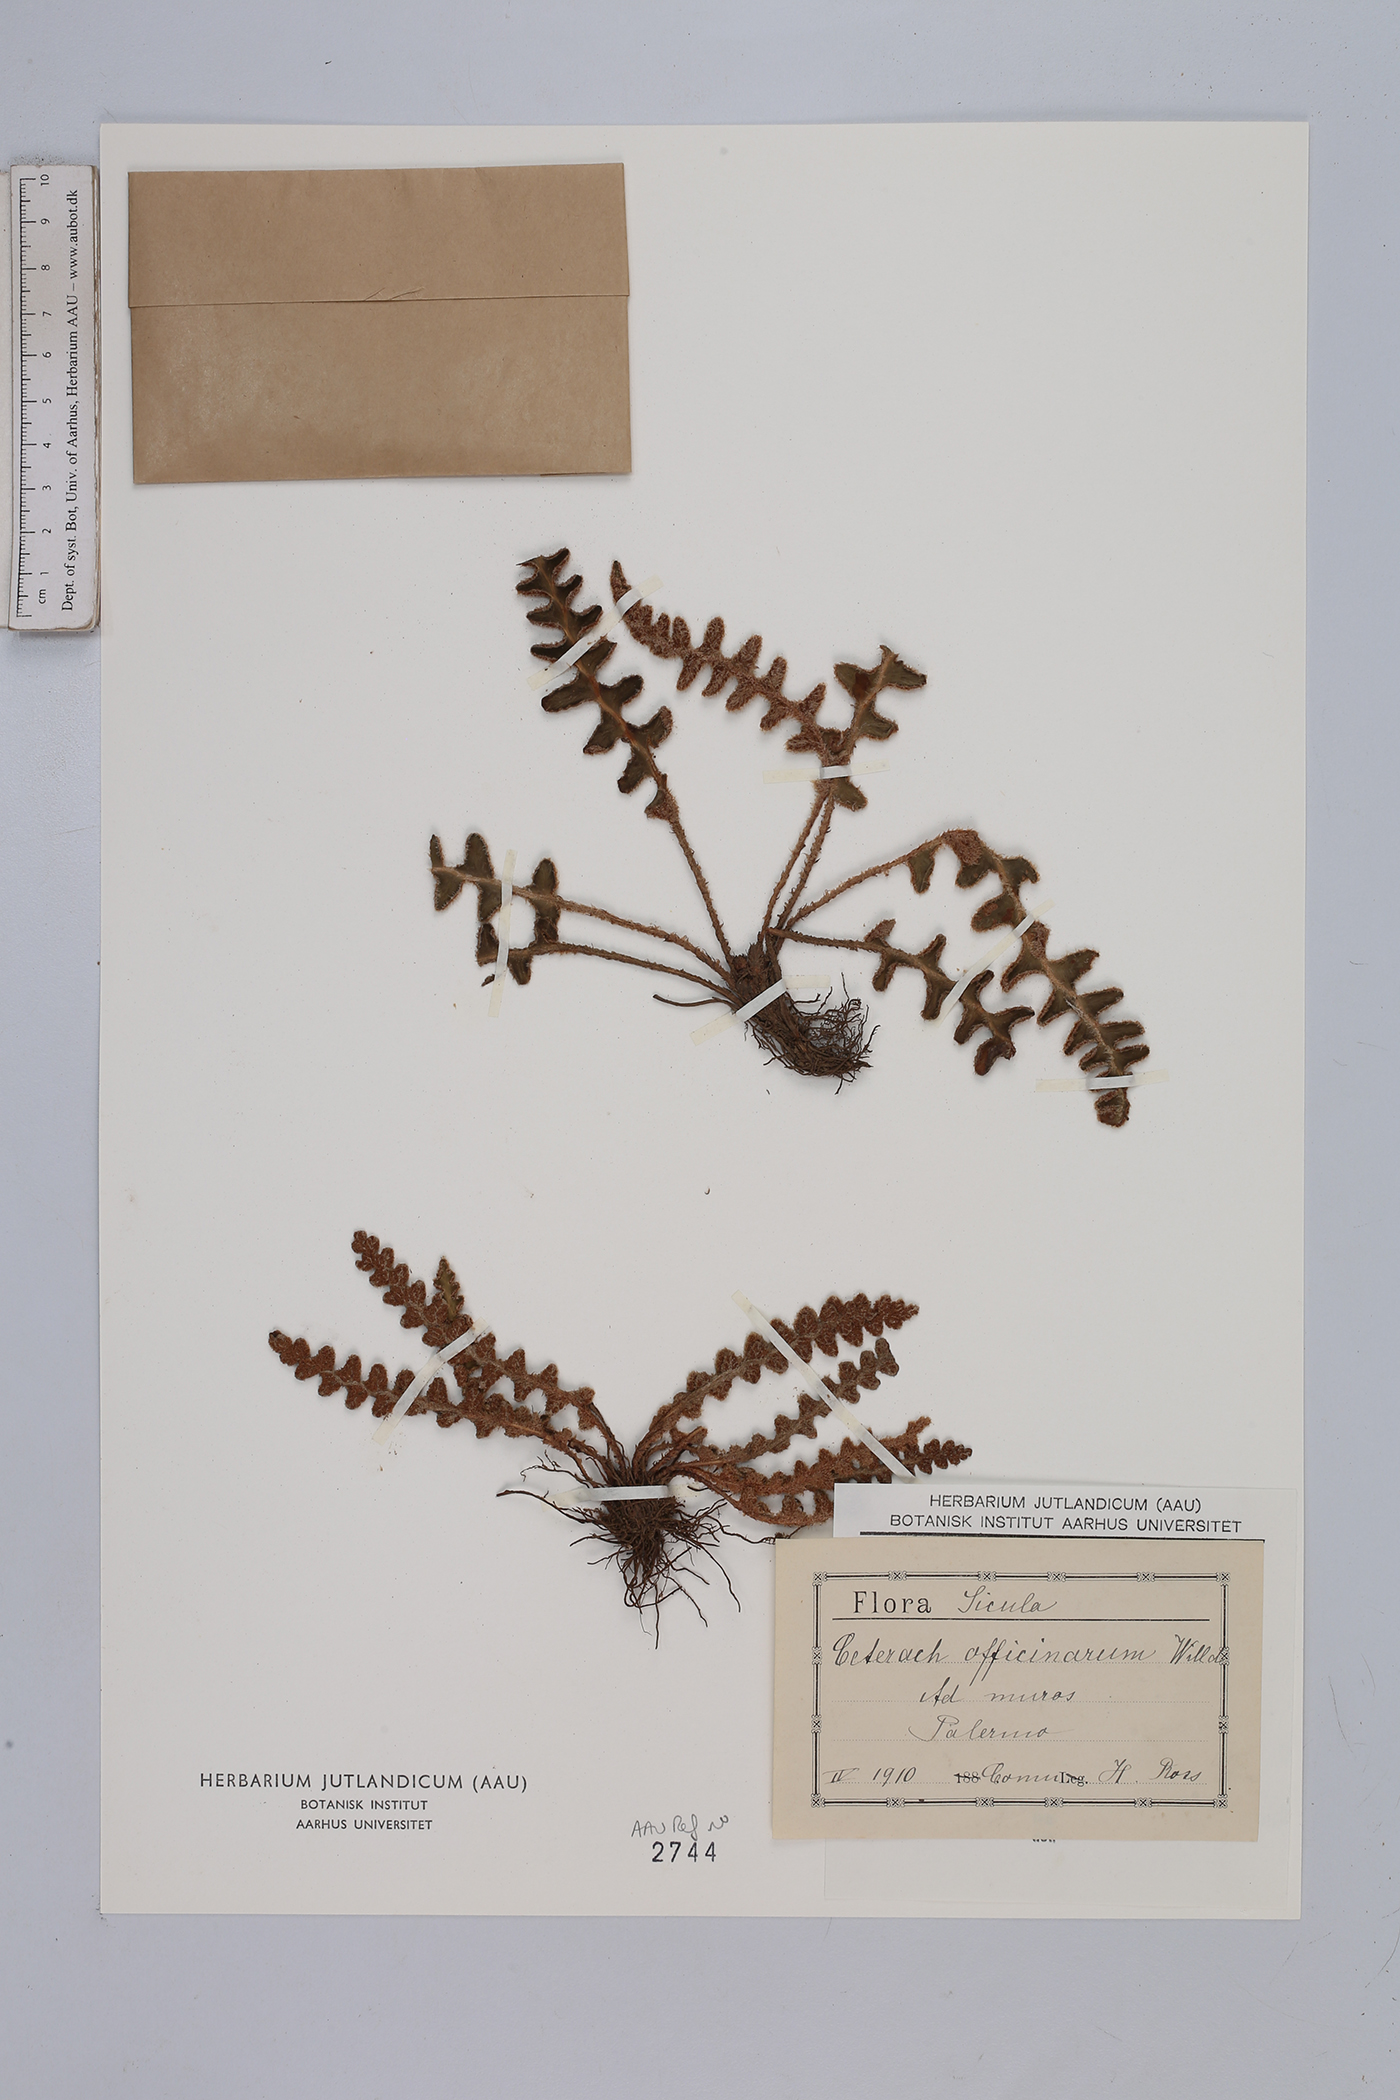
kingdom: Plantae
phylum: Tracheophyta
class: Polypodiopsida
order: Polypodiales
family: Aspleniaceae
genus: Asplenium
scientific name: Asplenium ceterach
